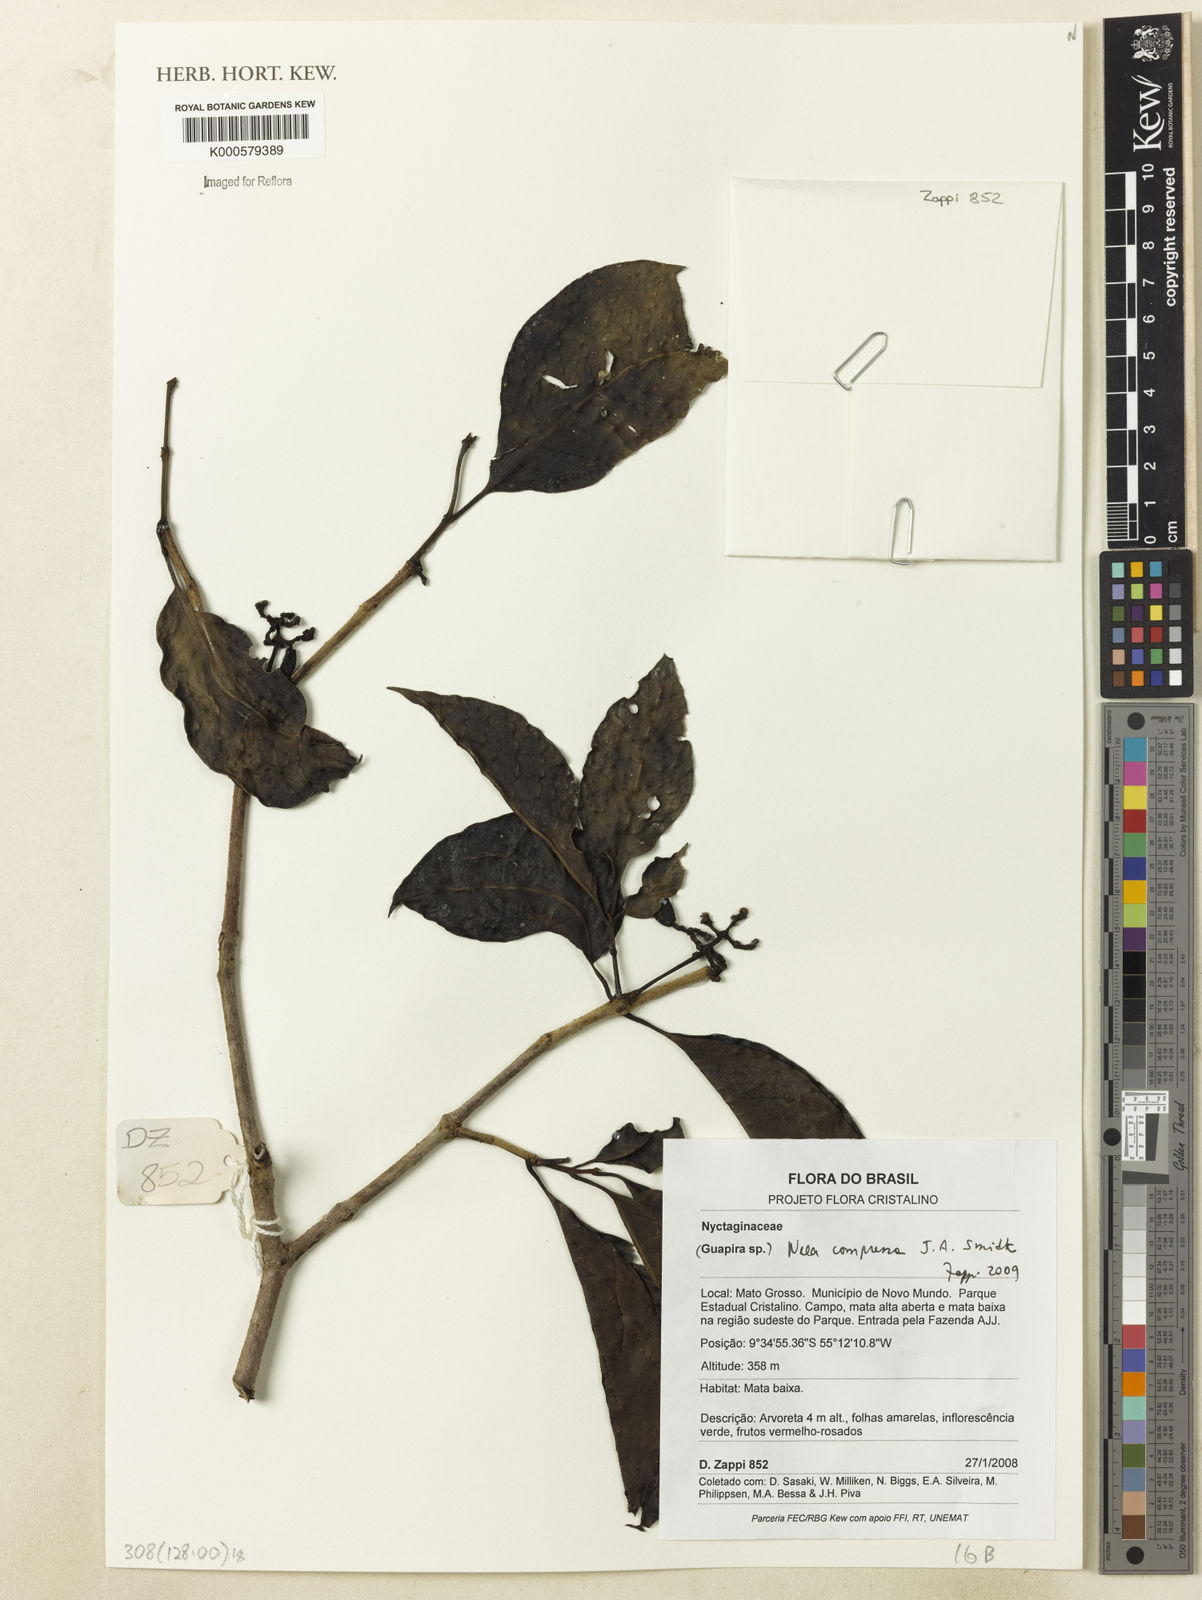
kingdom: Plantae
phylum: Tracheophyta
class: Magnoliopsida
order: Caryophyllales
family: Nyctaginaceae
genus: Neea
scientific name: Neea oppositifolia
